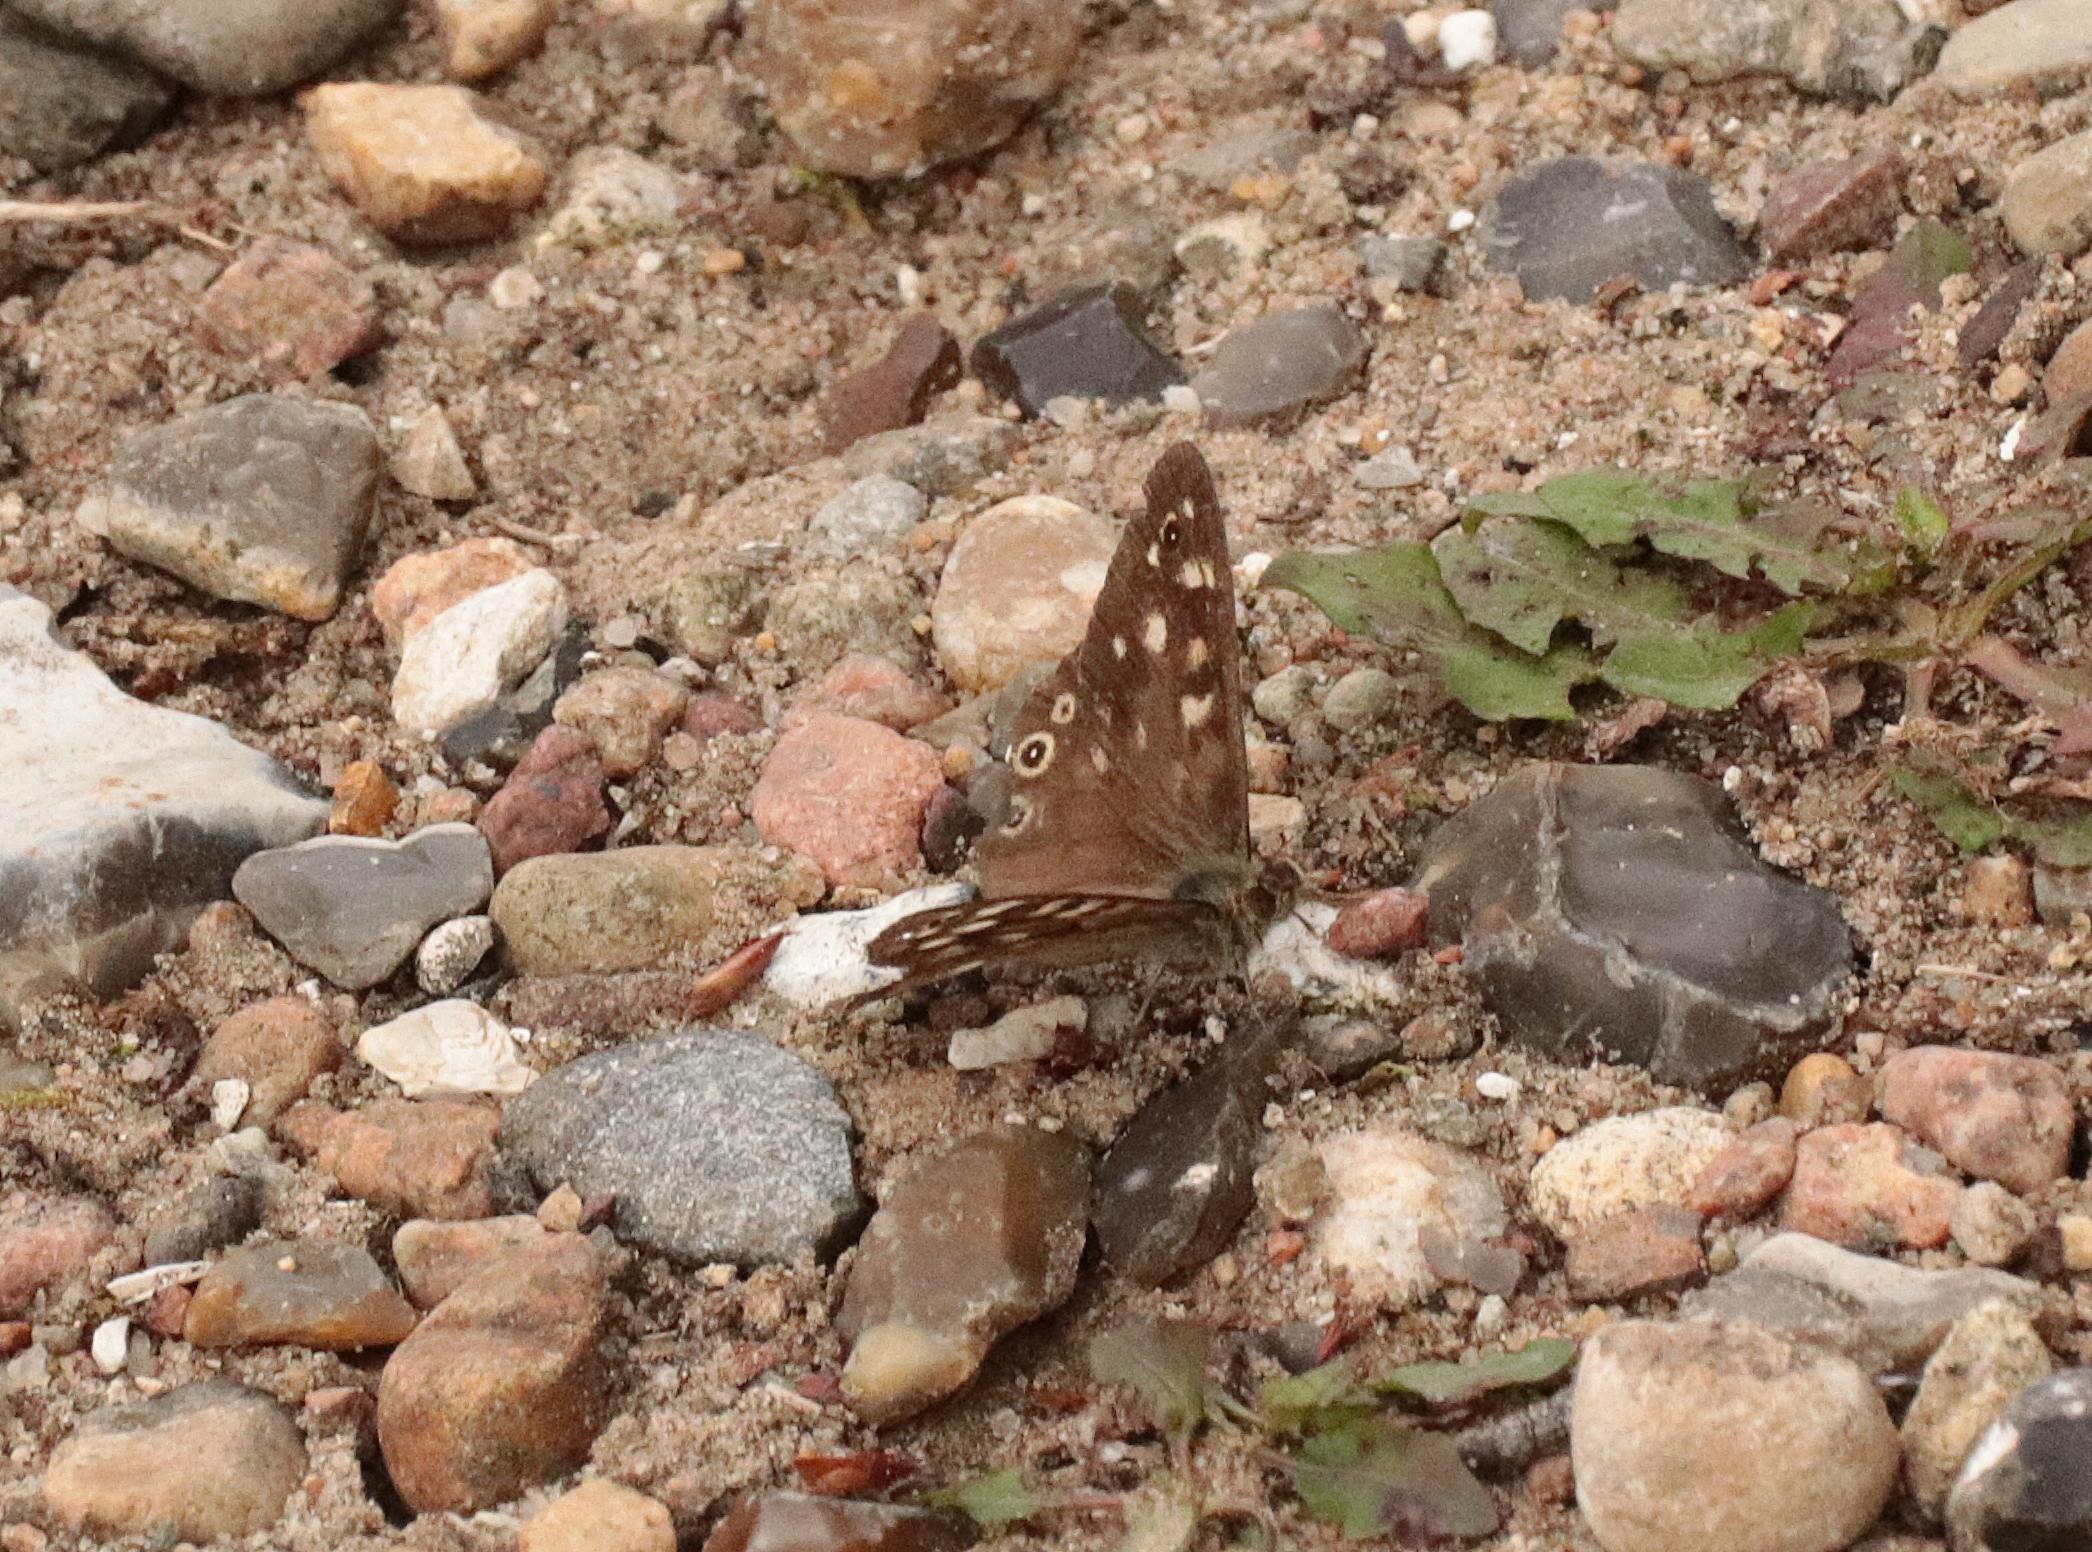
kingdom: Animalia
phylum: Arthropoda
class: Insecta
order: Lepidoptera
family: Nymphalidae
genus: Pararge
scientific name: Pararge aegeria
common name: Skovrandøje
